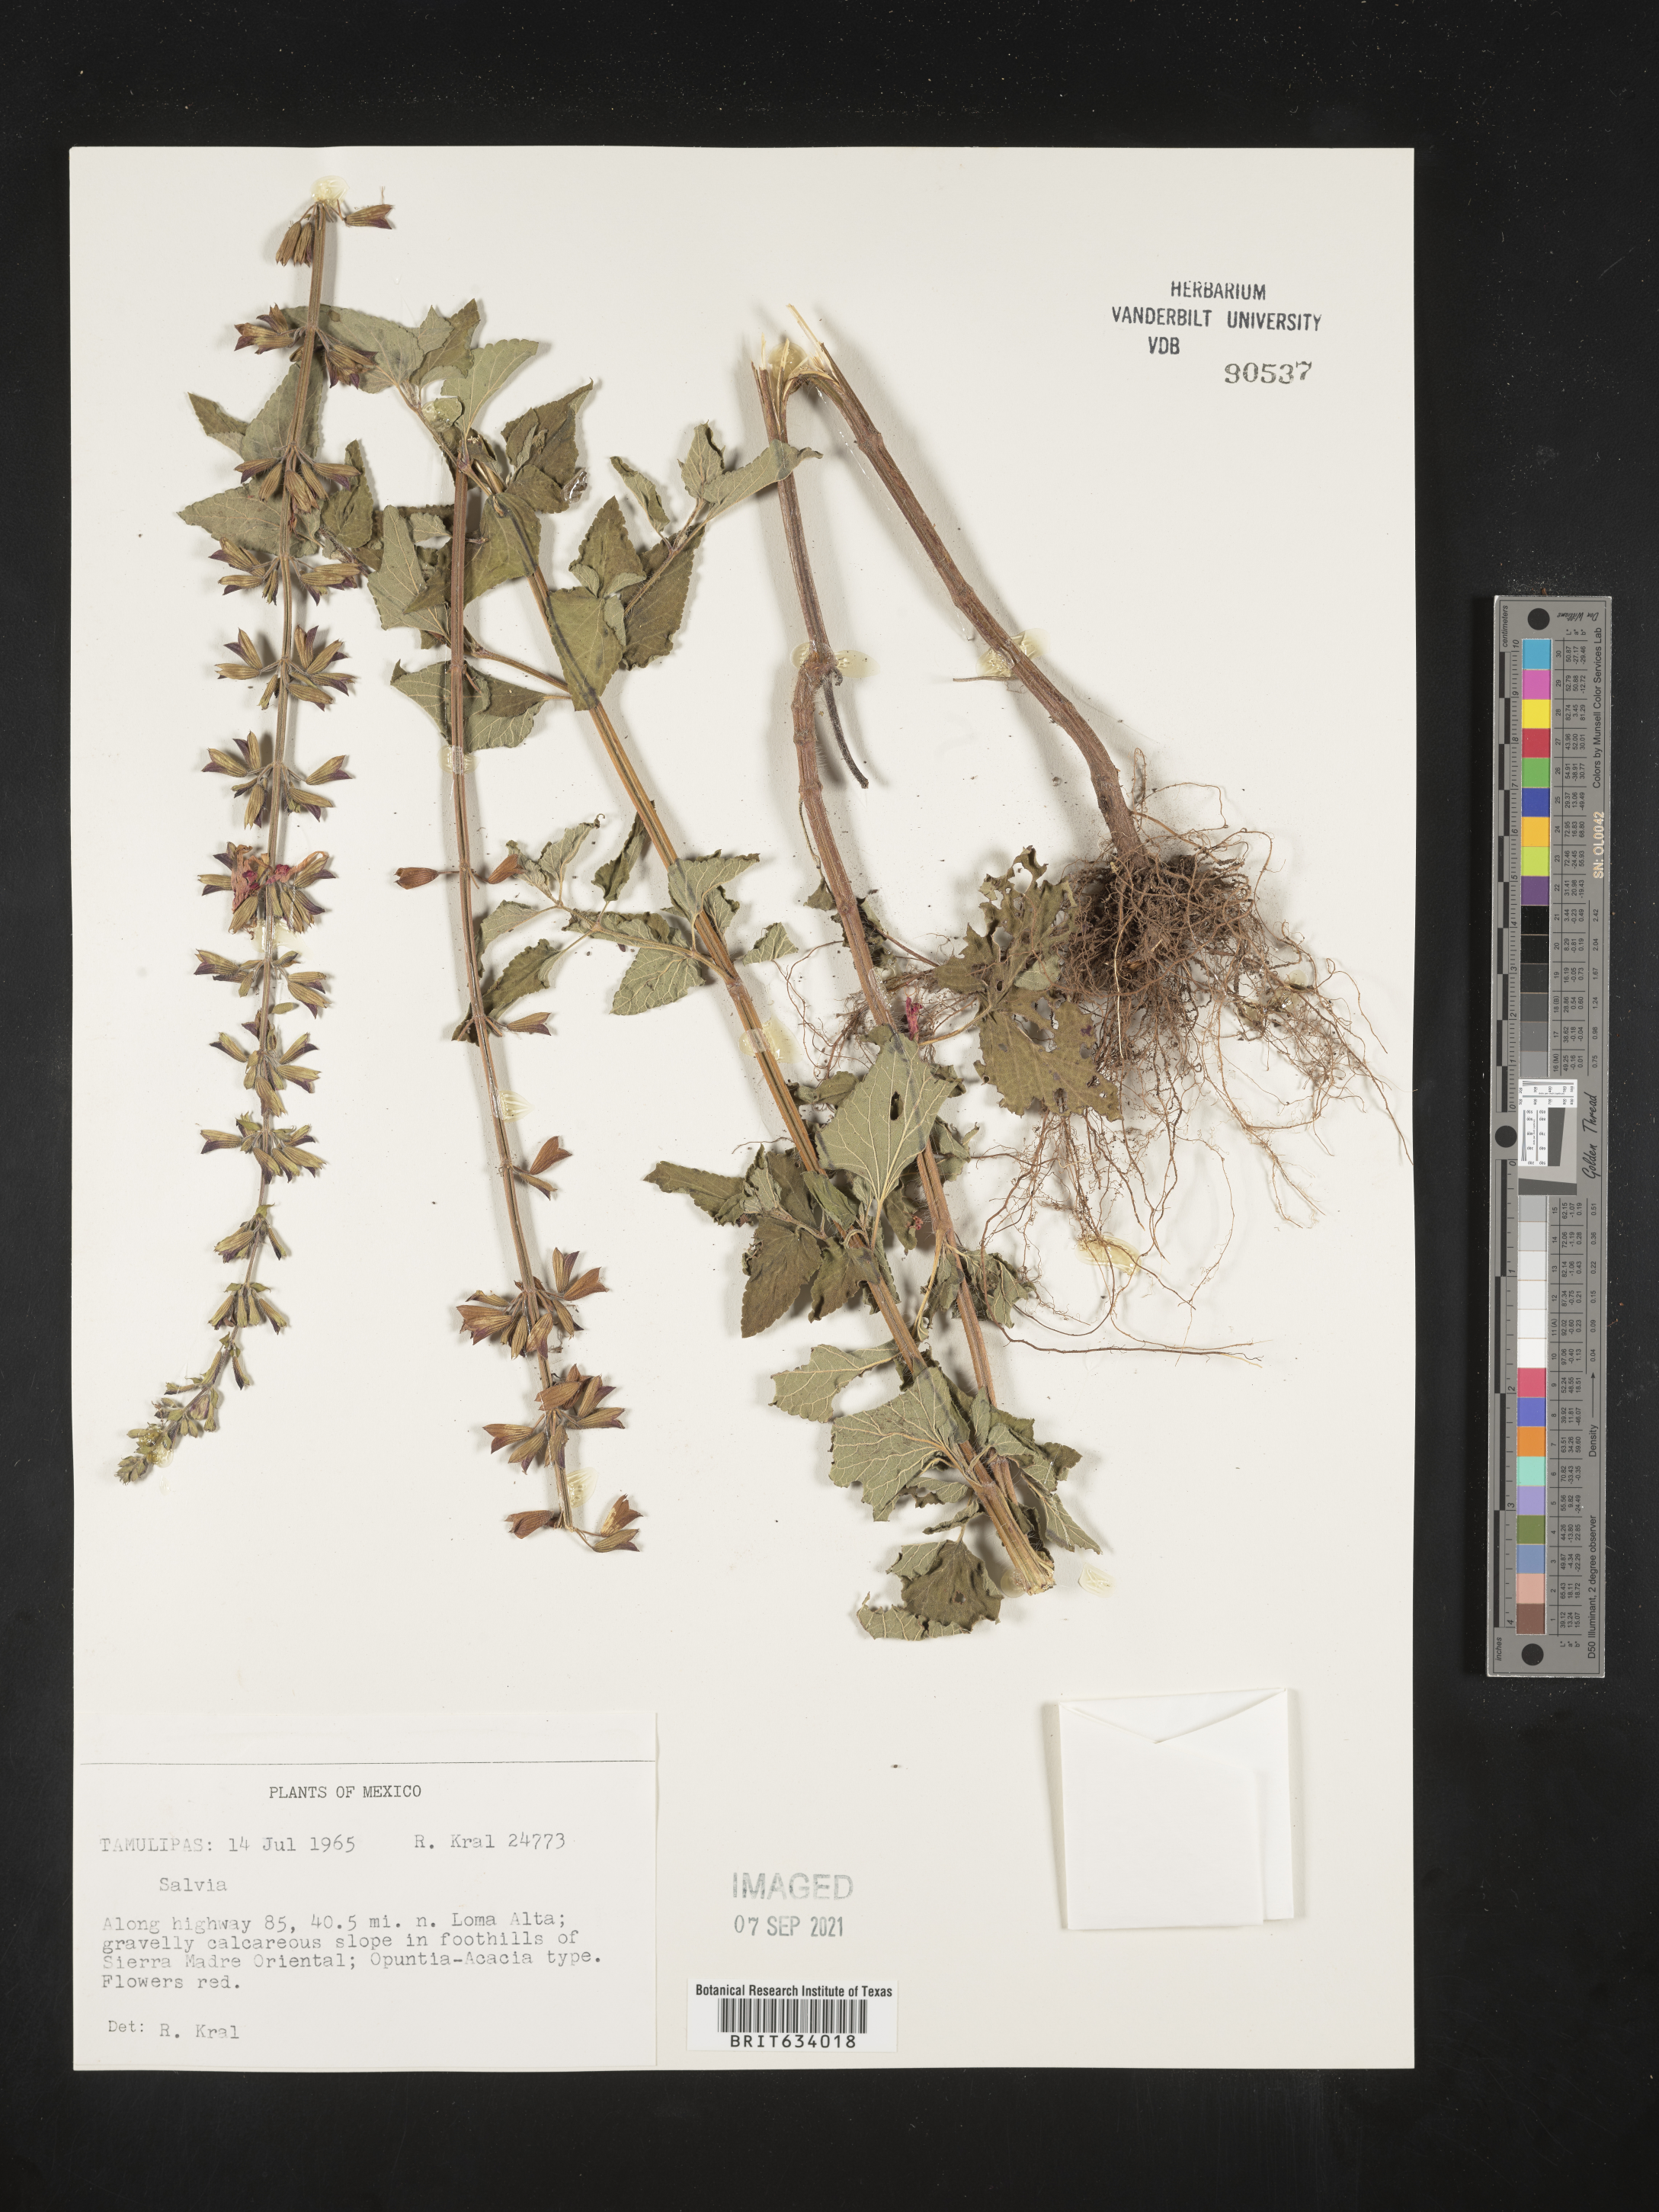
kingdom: Plantae
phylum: Tracheophyta
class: Magnoliopsida
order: Lamiales
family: Lamiaceae
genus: Salvia
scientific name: Salvia
